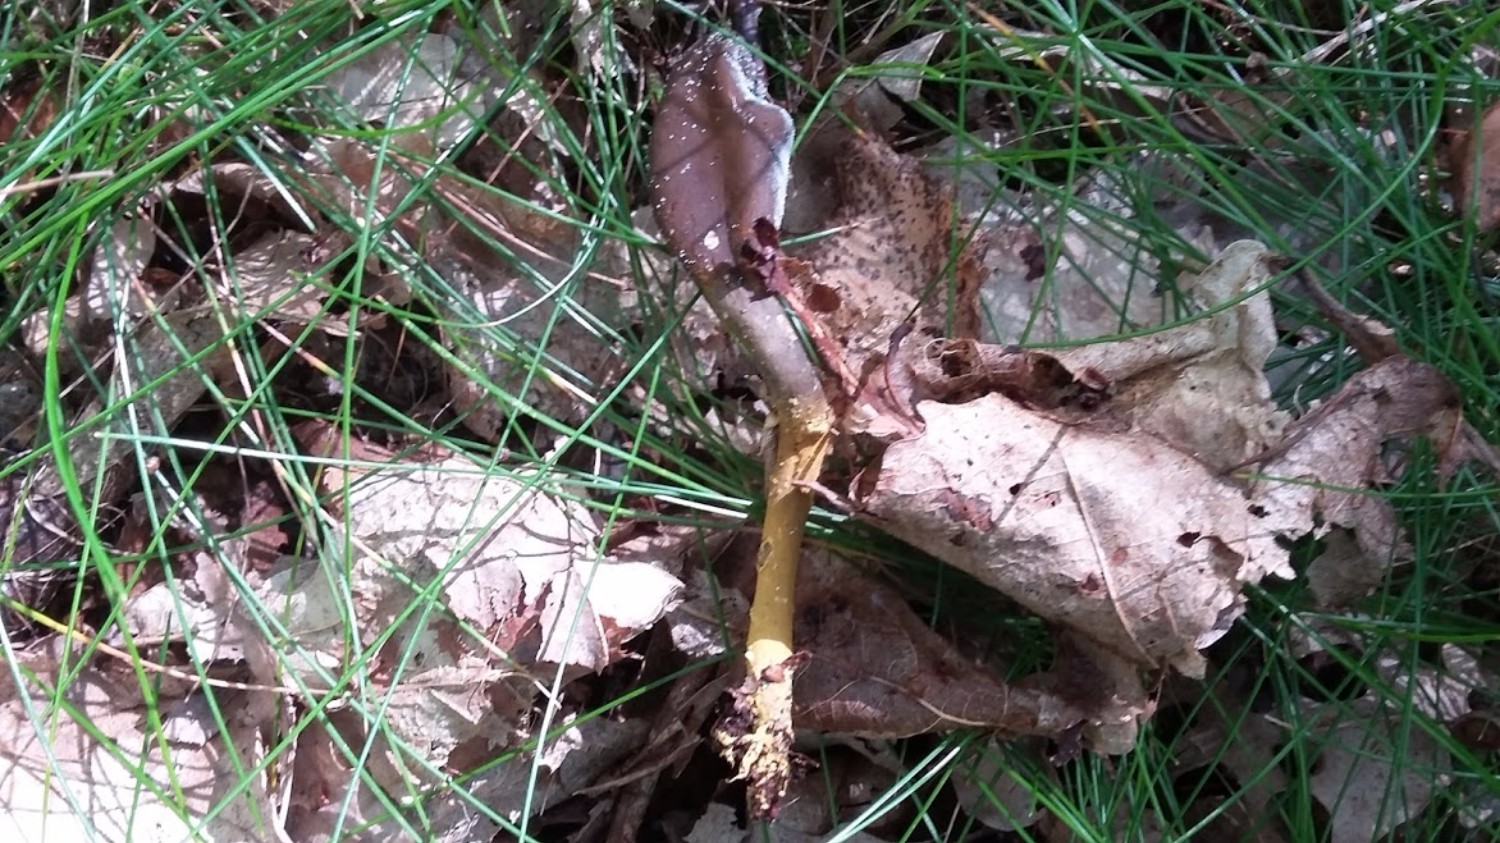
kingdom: Fungi
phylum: Ascomycota
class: Sordariomycetes
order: Hypocreales
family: Ophiocordycipitaceae
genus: Tolypocladium
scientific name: Tolypocladium ophioglossoides
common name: slank snyltekølle
